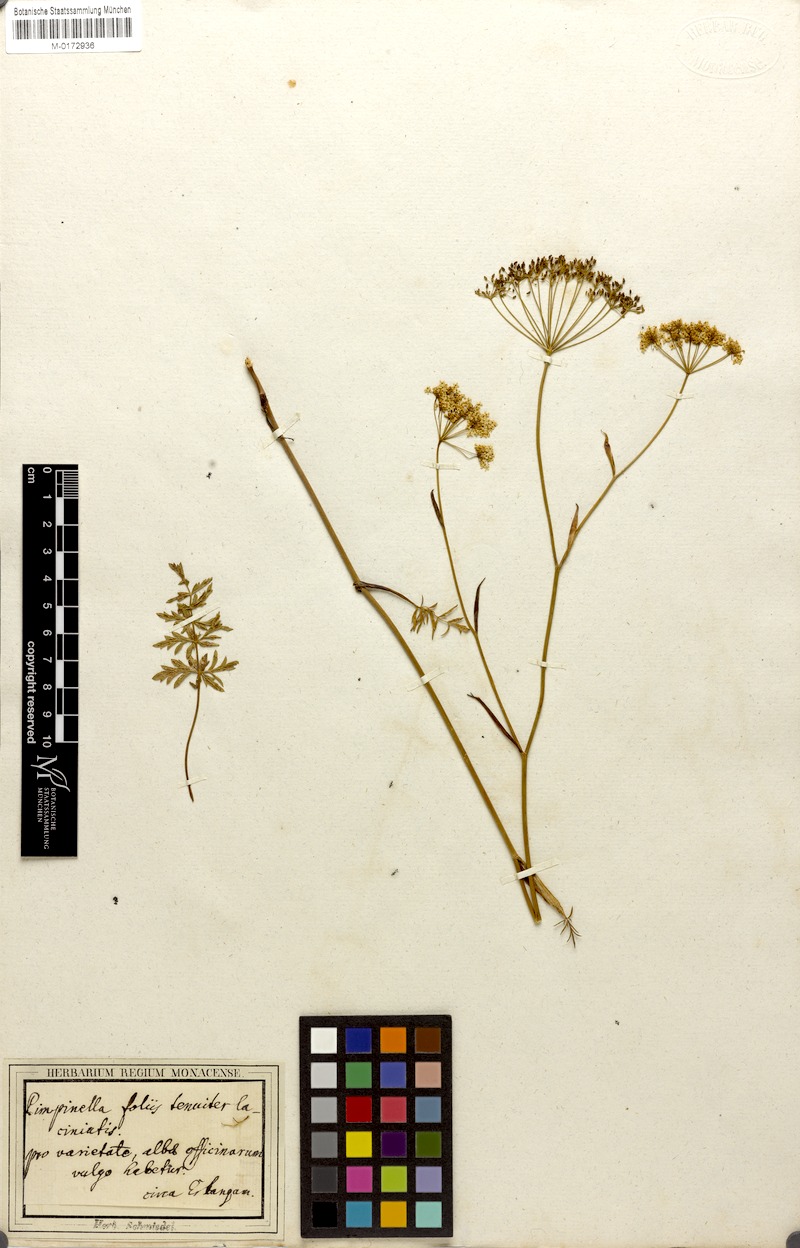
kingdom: Plantae
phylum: Tracheophyta
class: Magnoliopsida
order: Apiales
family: Apiaceae
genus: Pimpinella
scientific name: Pimpinella saxifraga
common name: Burnet-saxifrage
